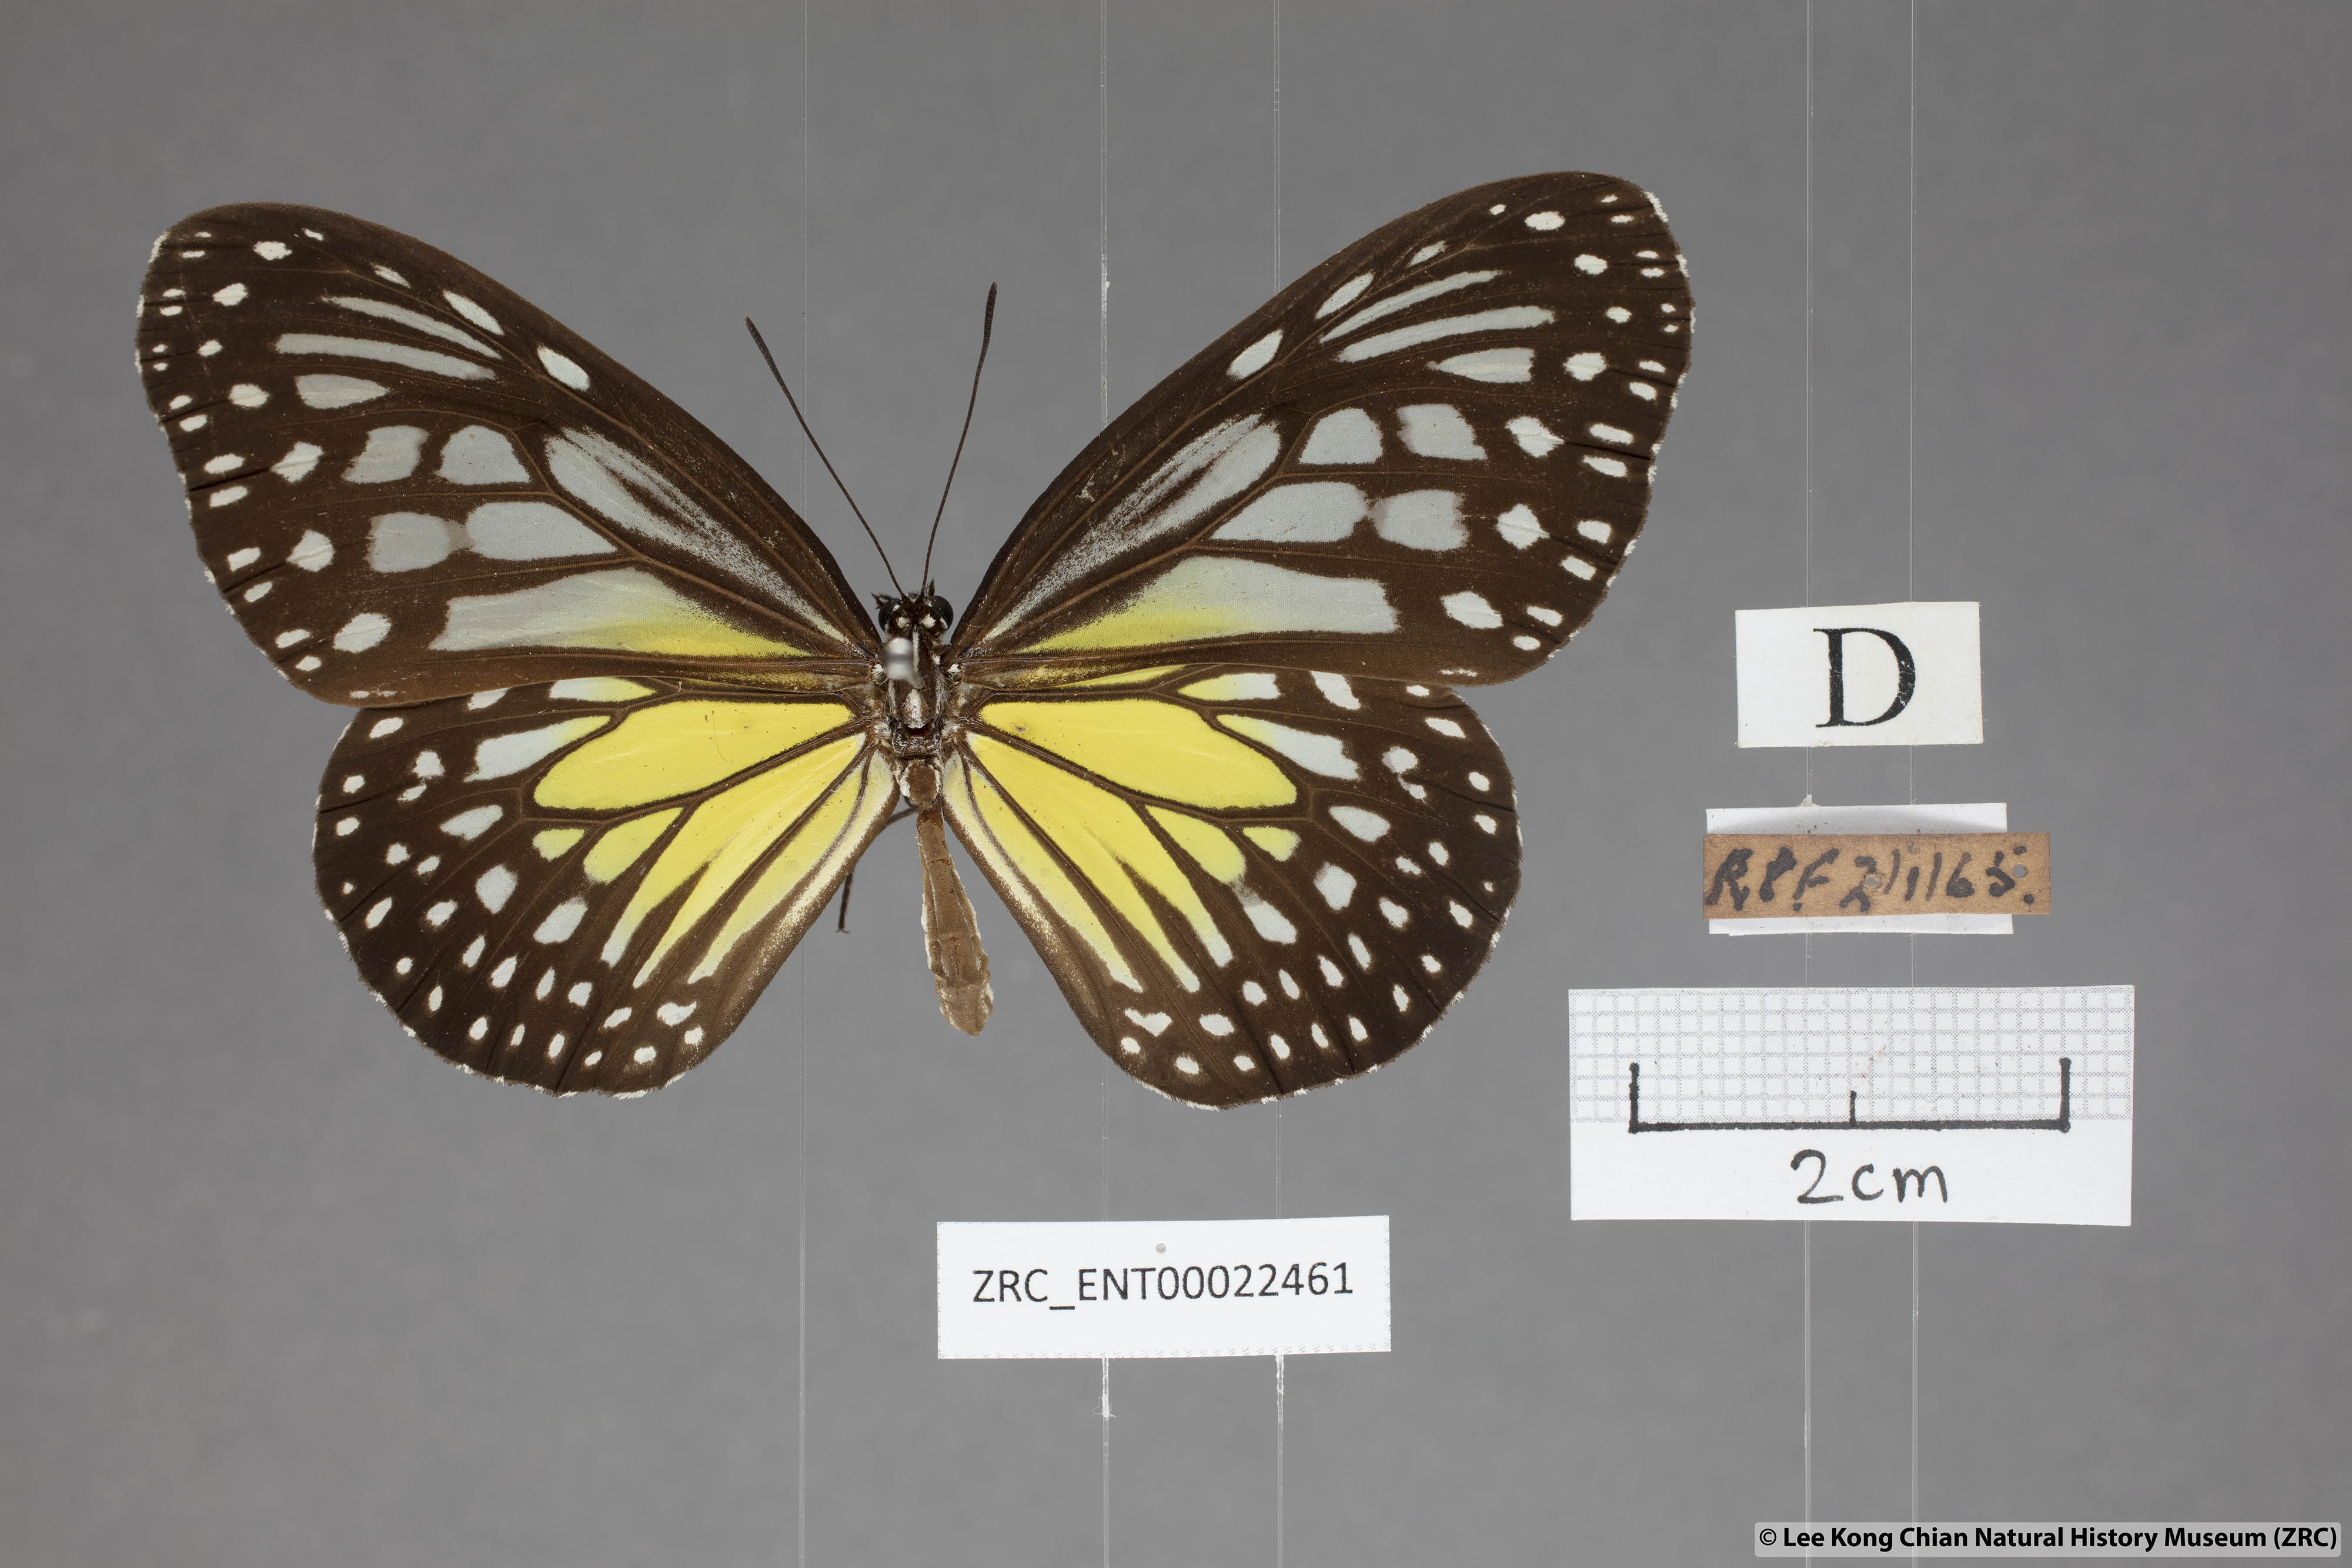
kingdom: Animalia
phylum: Arthropoda
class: Insecta
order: Lepidoptera
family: Nymphalidae
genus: Parantica
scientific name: Parantica aspasia
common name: Yellow glassy tiger
